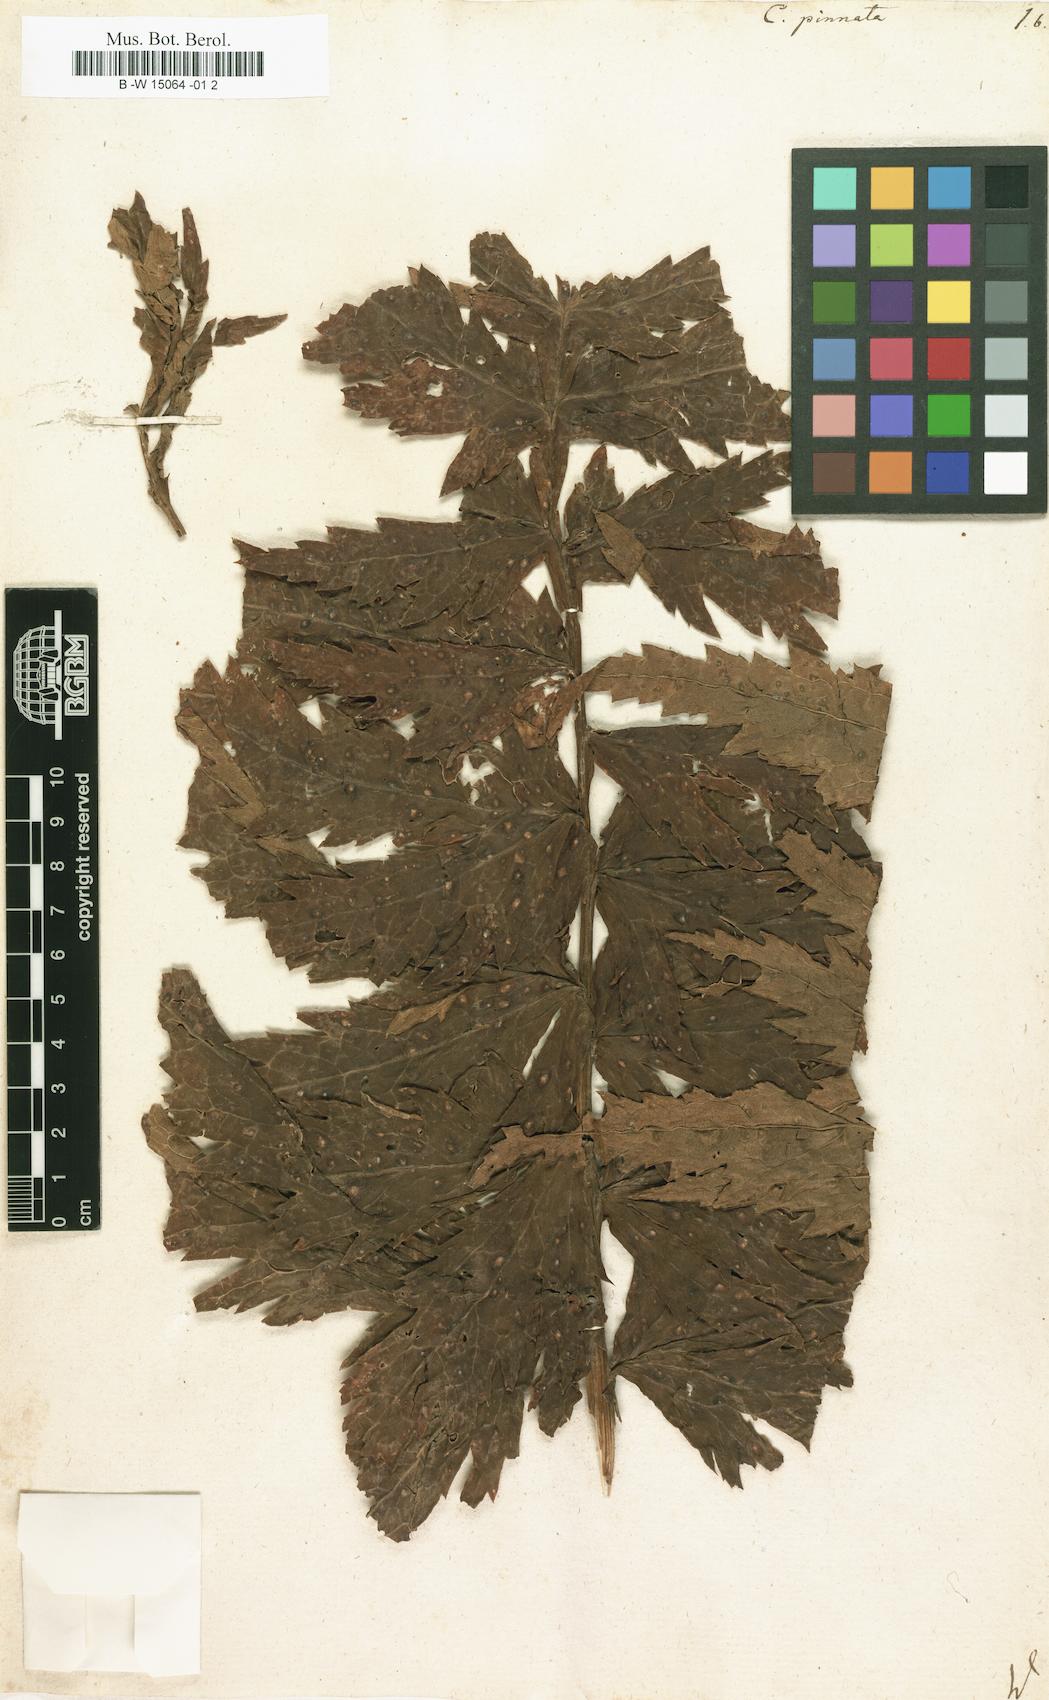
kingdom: Plantae
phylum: Tracheophyta
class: Magnoliopsida
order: Asterales
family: Asteraceae
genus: Jacobaea
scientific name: Jacobaea othonnae
